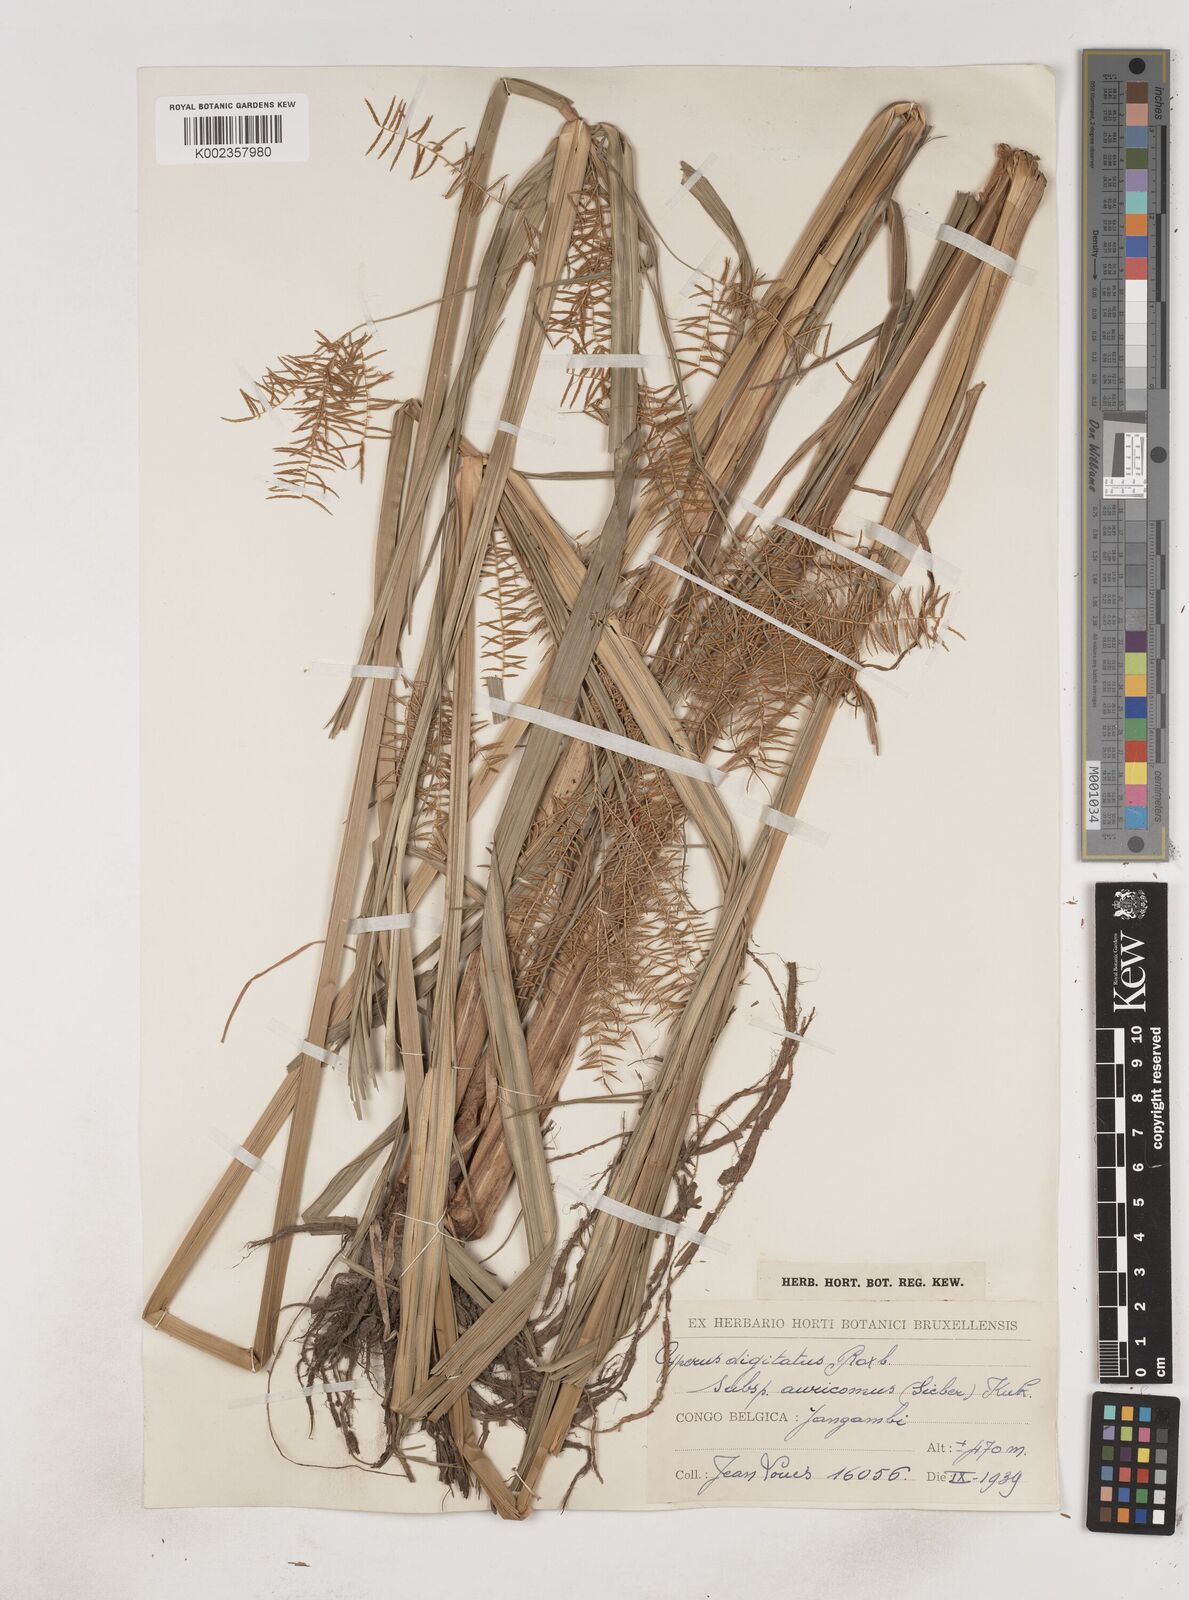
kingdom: Plantae
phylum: Tracheophyta
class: Liliopsida
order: Poales
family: Cyperaceae
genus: Cyperus
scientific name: Cyperus digitatus
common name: Finger flatsedge
